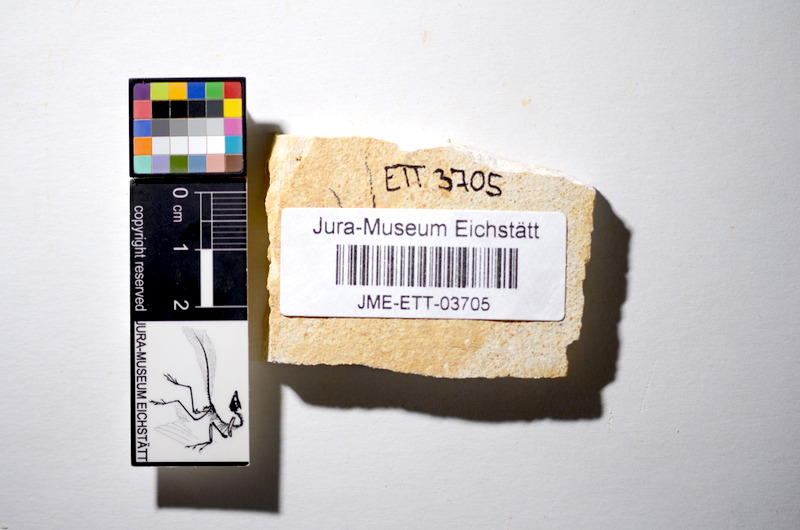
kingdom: Animalia
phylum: Chordata
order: Salmoniformes
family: Orthogonikleithridae
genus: Orthogonikleithrus
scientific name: Orthogonikleithrus hoelli
